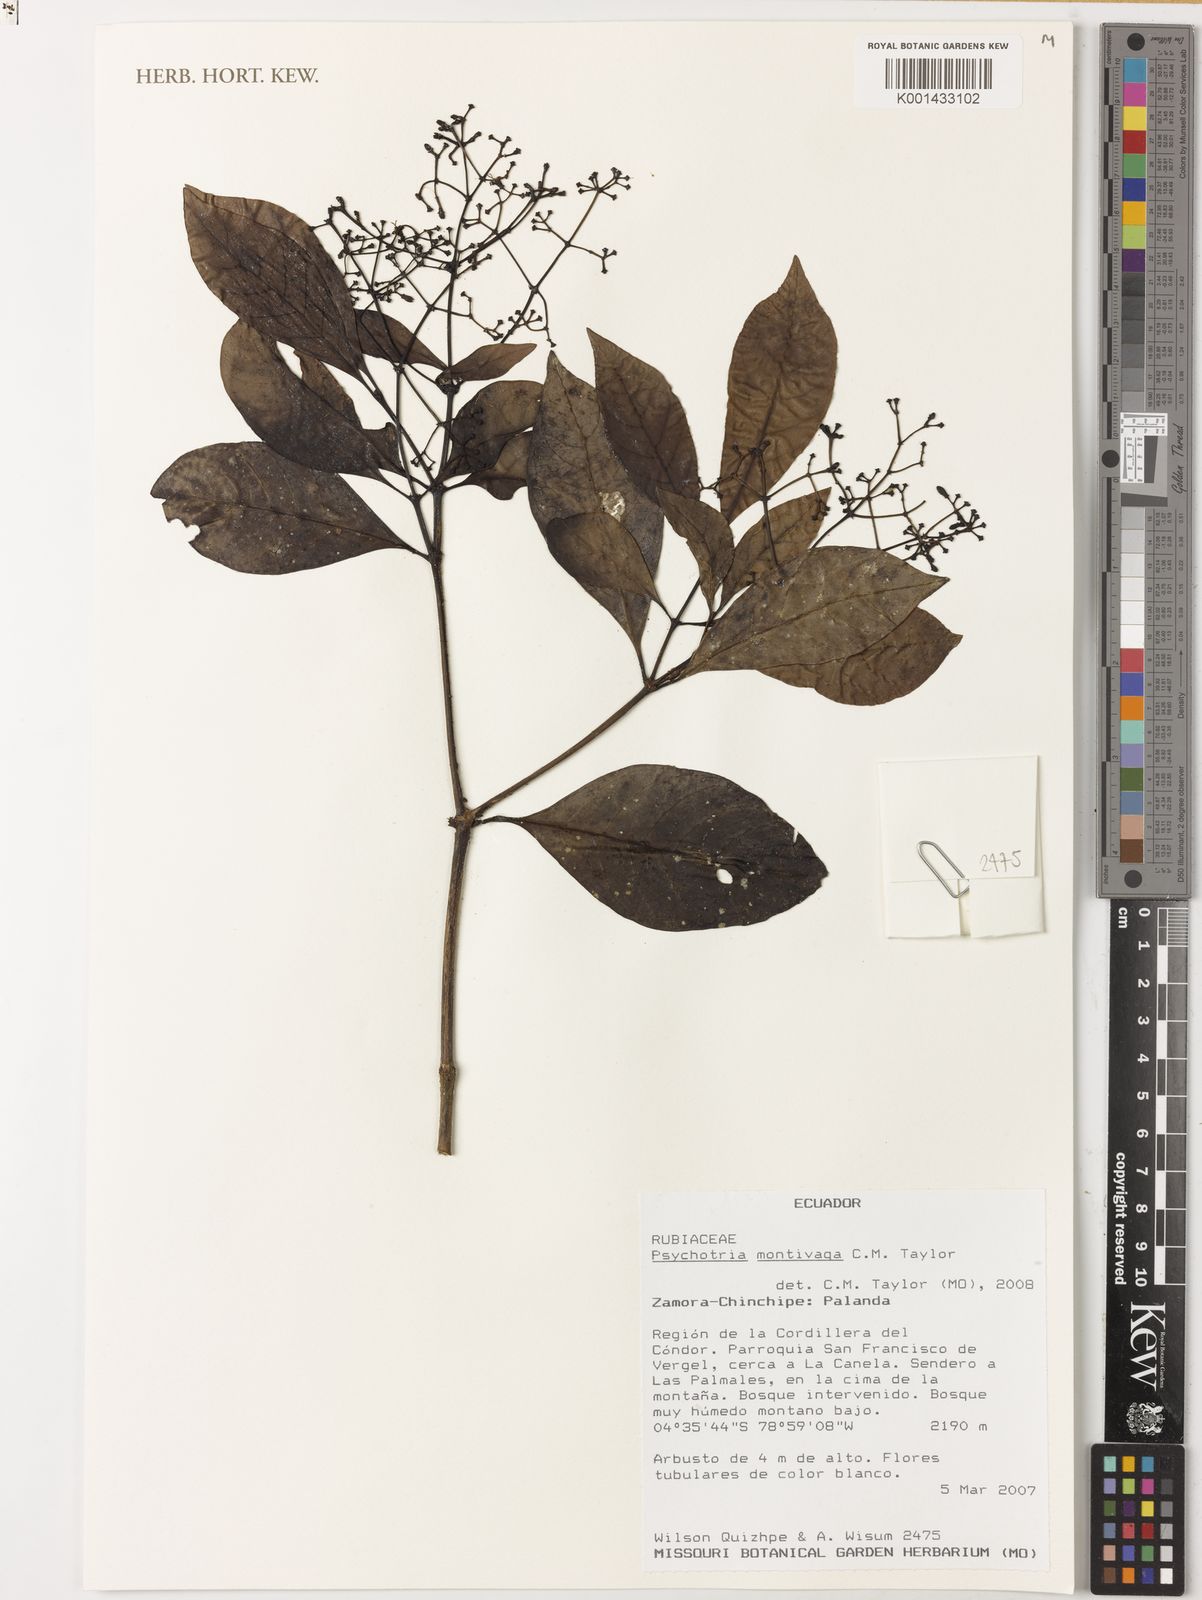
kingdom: Plantae
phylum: Tracheophyta
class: Magnoliopsida
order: Gentianales
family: Rubiaceae
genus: Psychotria
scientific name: Psychotria montivaga
